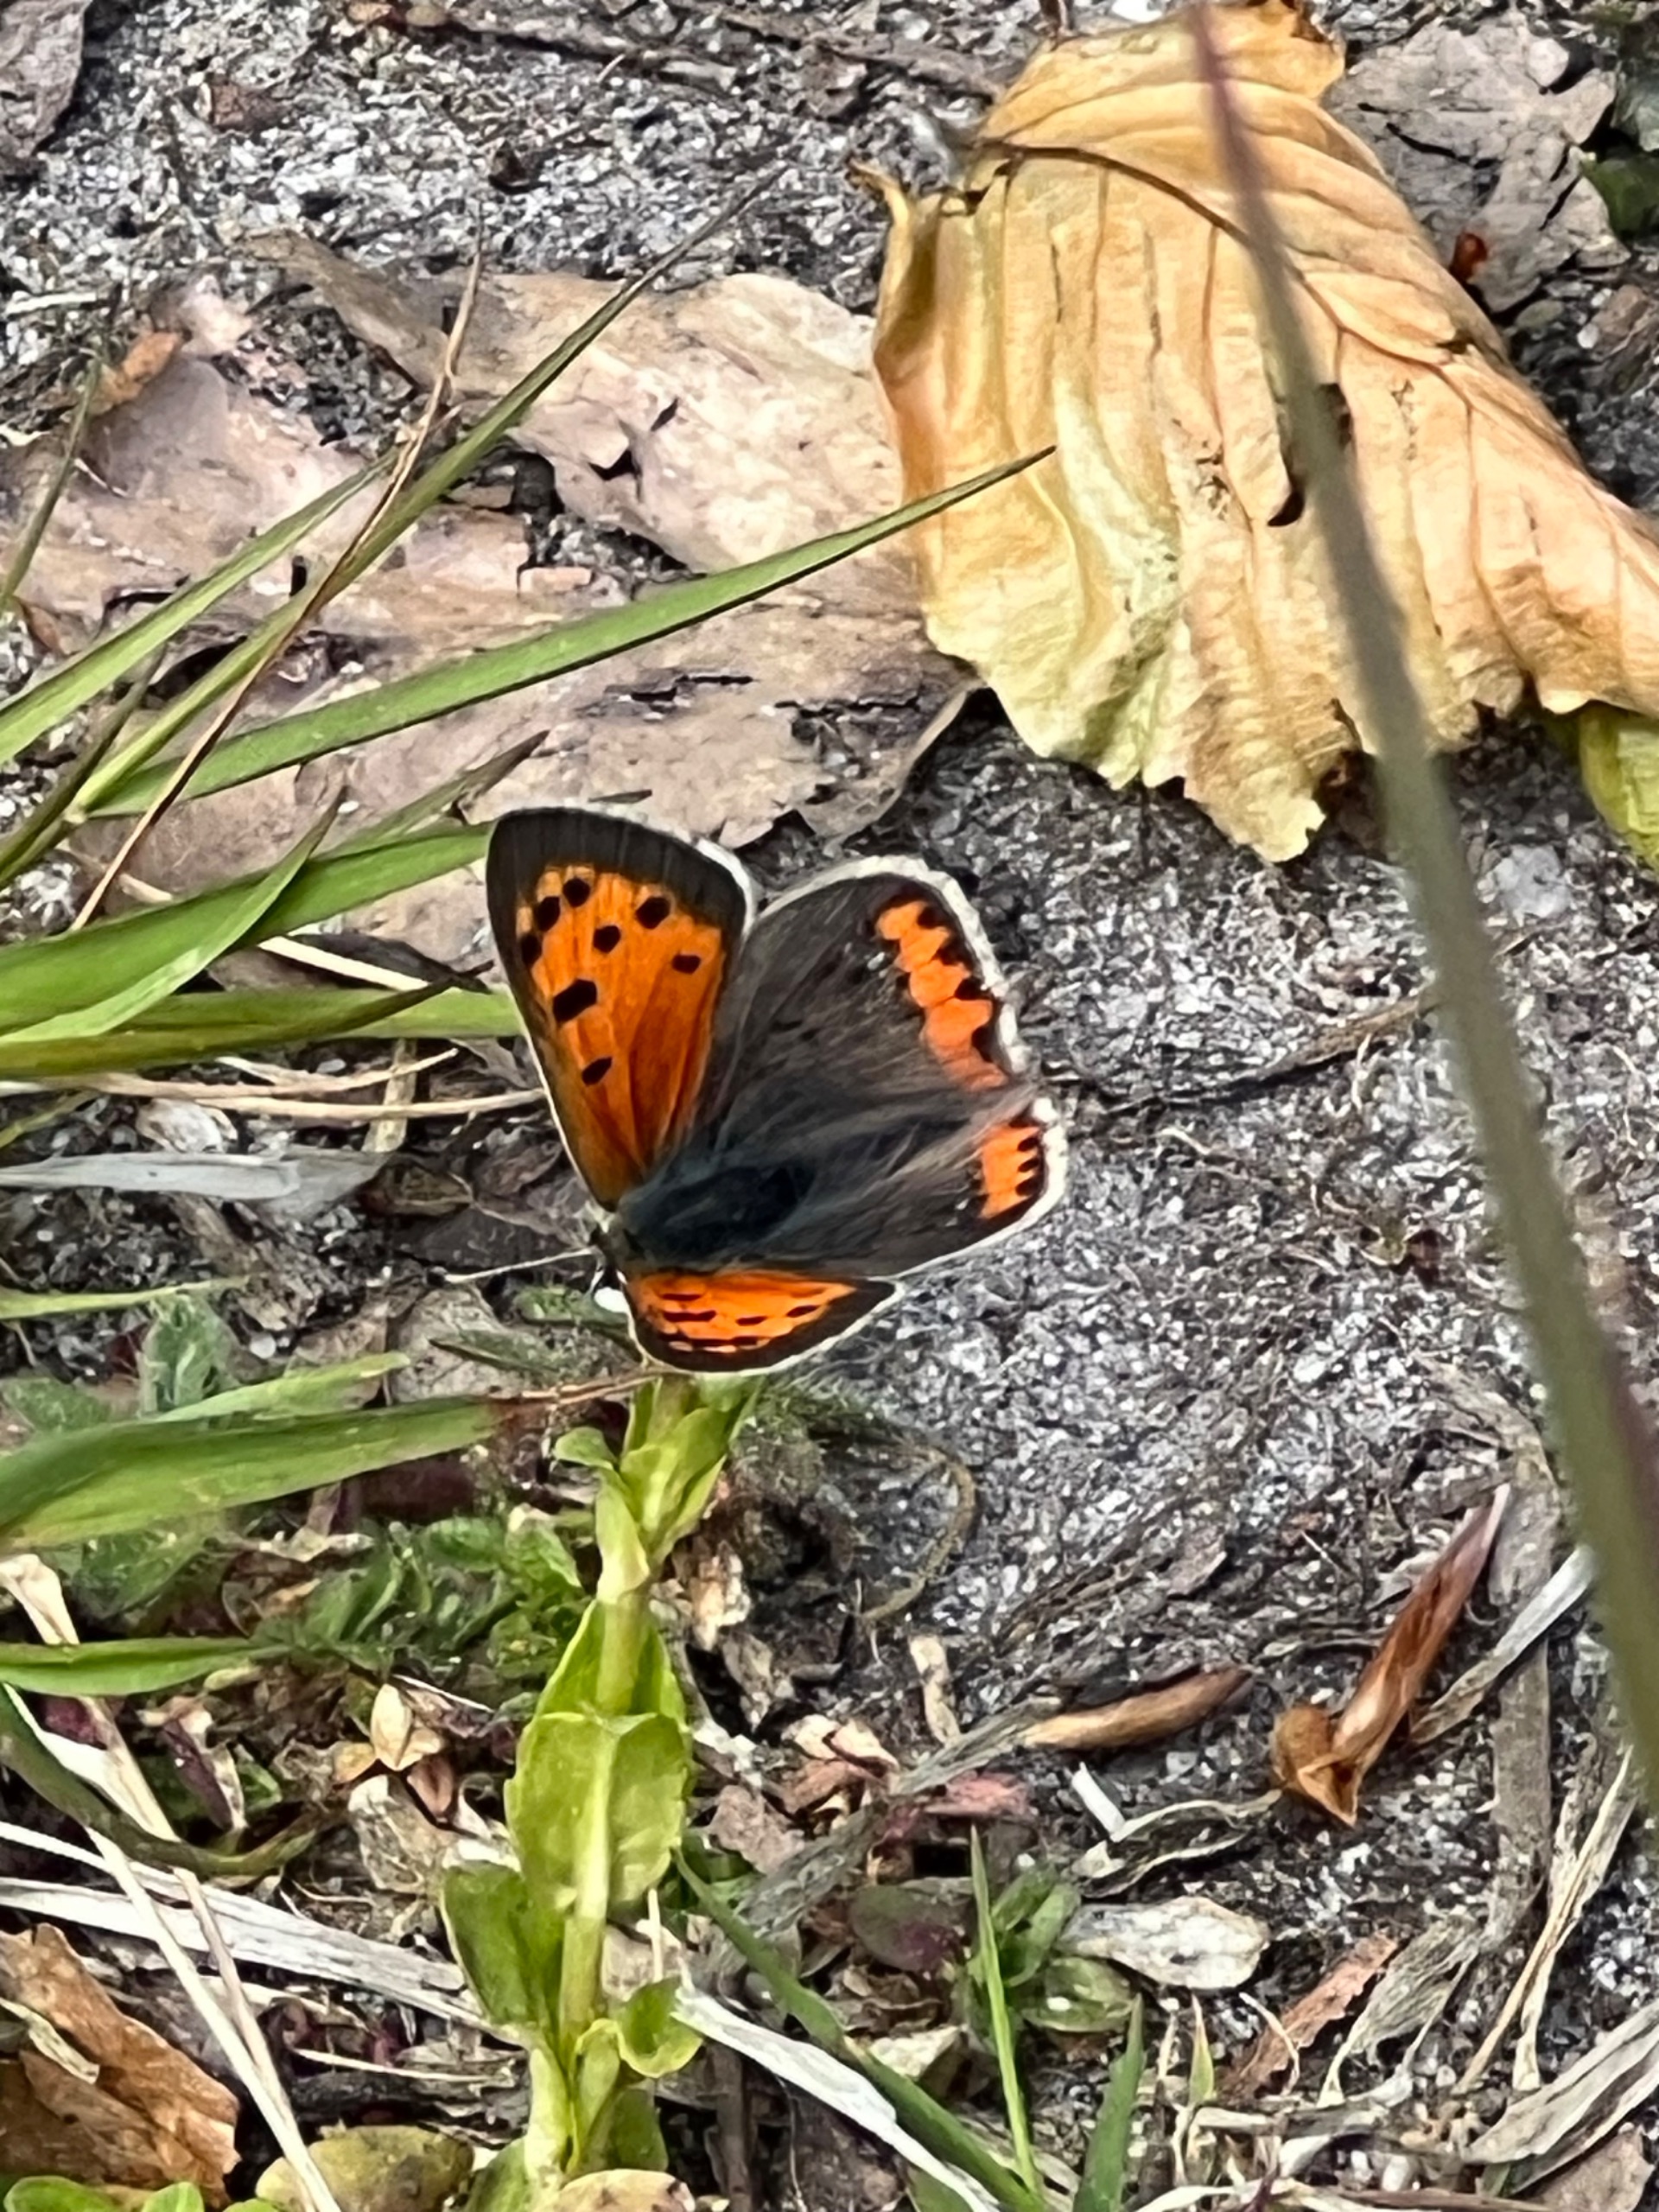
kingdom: Animalia
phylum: Arthropoda
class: Insecta
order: Lepidoptera
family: Lycaenidae
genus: Lycaena
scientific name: Lycaena phlaeas
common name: Lille ildfugl
